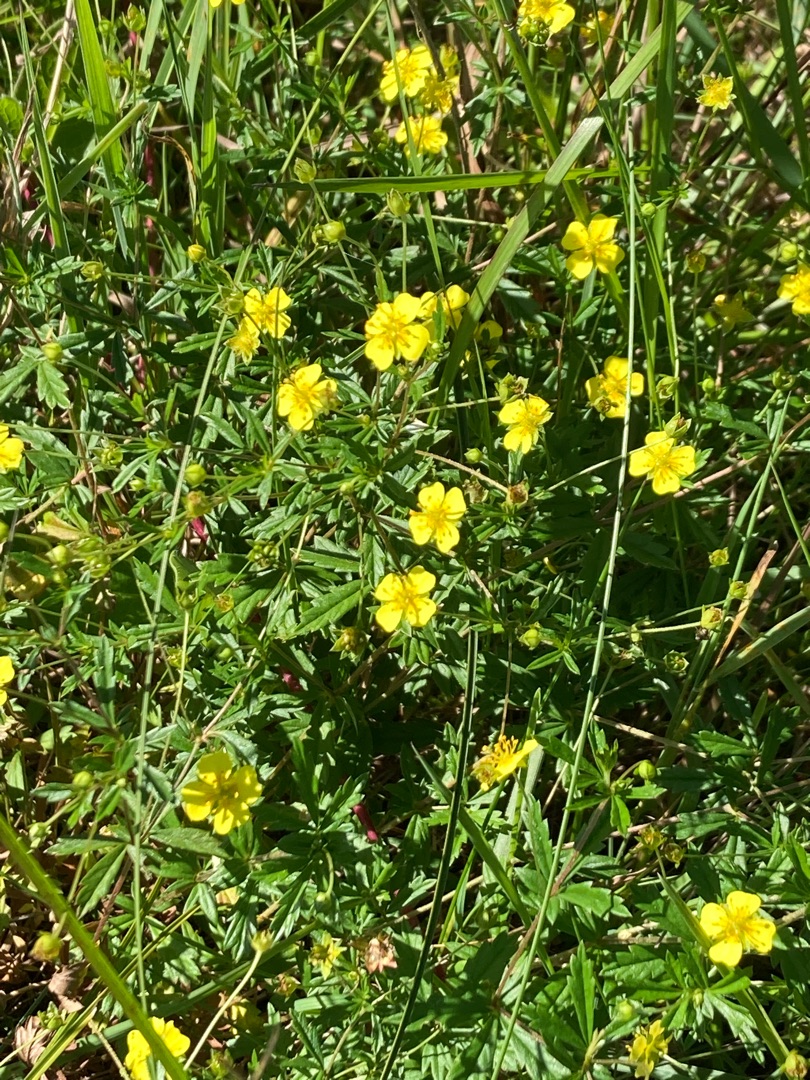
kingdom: Plantae
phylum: Tracheophyta
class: Magnoliopsida
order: Rosales
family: Rosaceae
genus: Potentilla
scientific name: Potentilla erecta
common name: Tormentil
